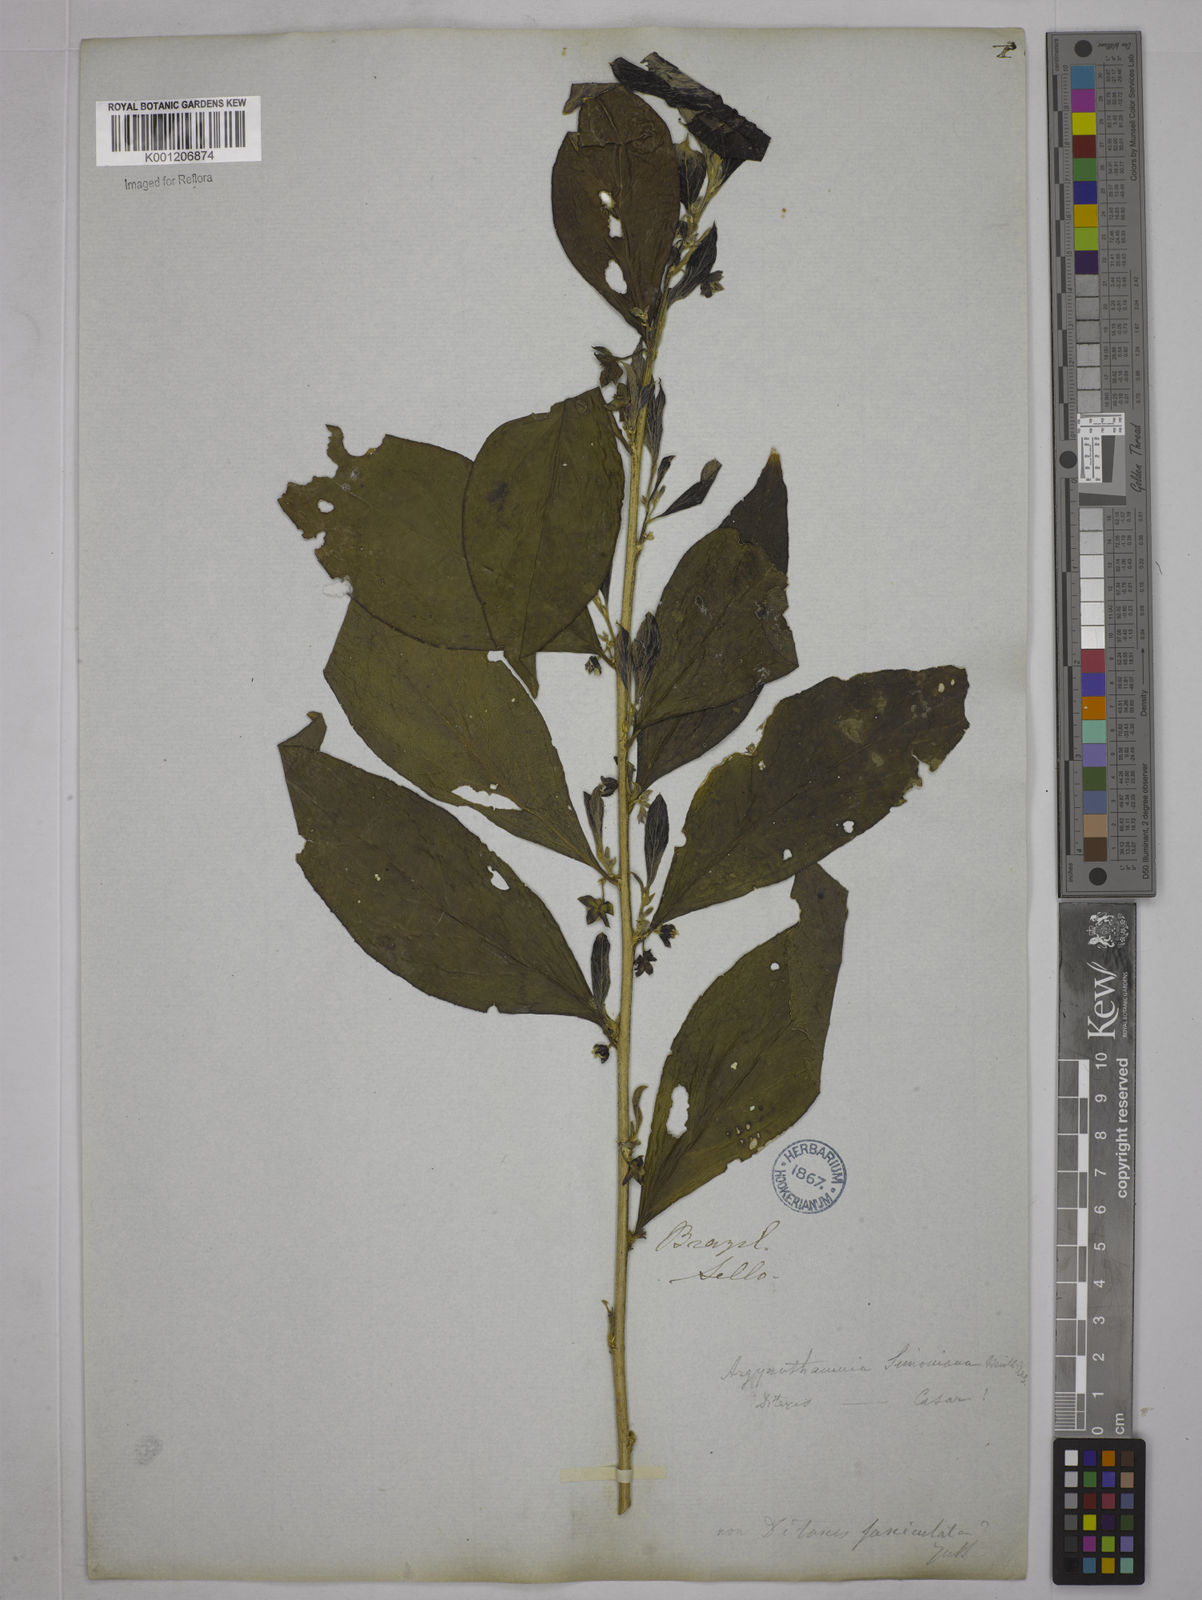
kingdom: Plantae
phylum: Tracheophyta
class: Magnoliopsida
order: Malpighiales
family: Euphorbiaceae
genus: Ditaxis
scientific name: Ditaxis simoniana
